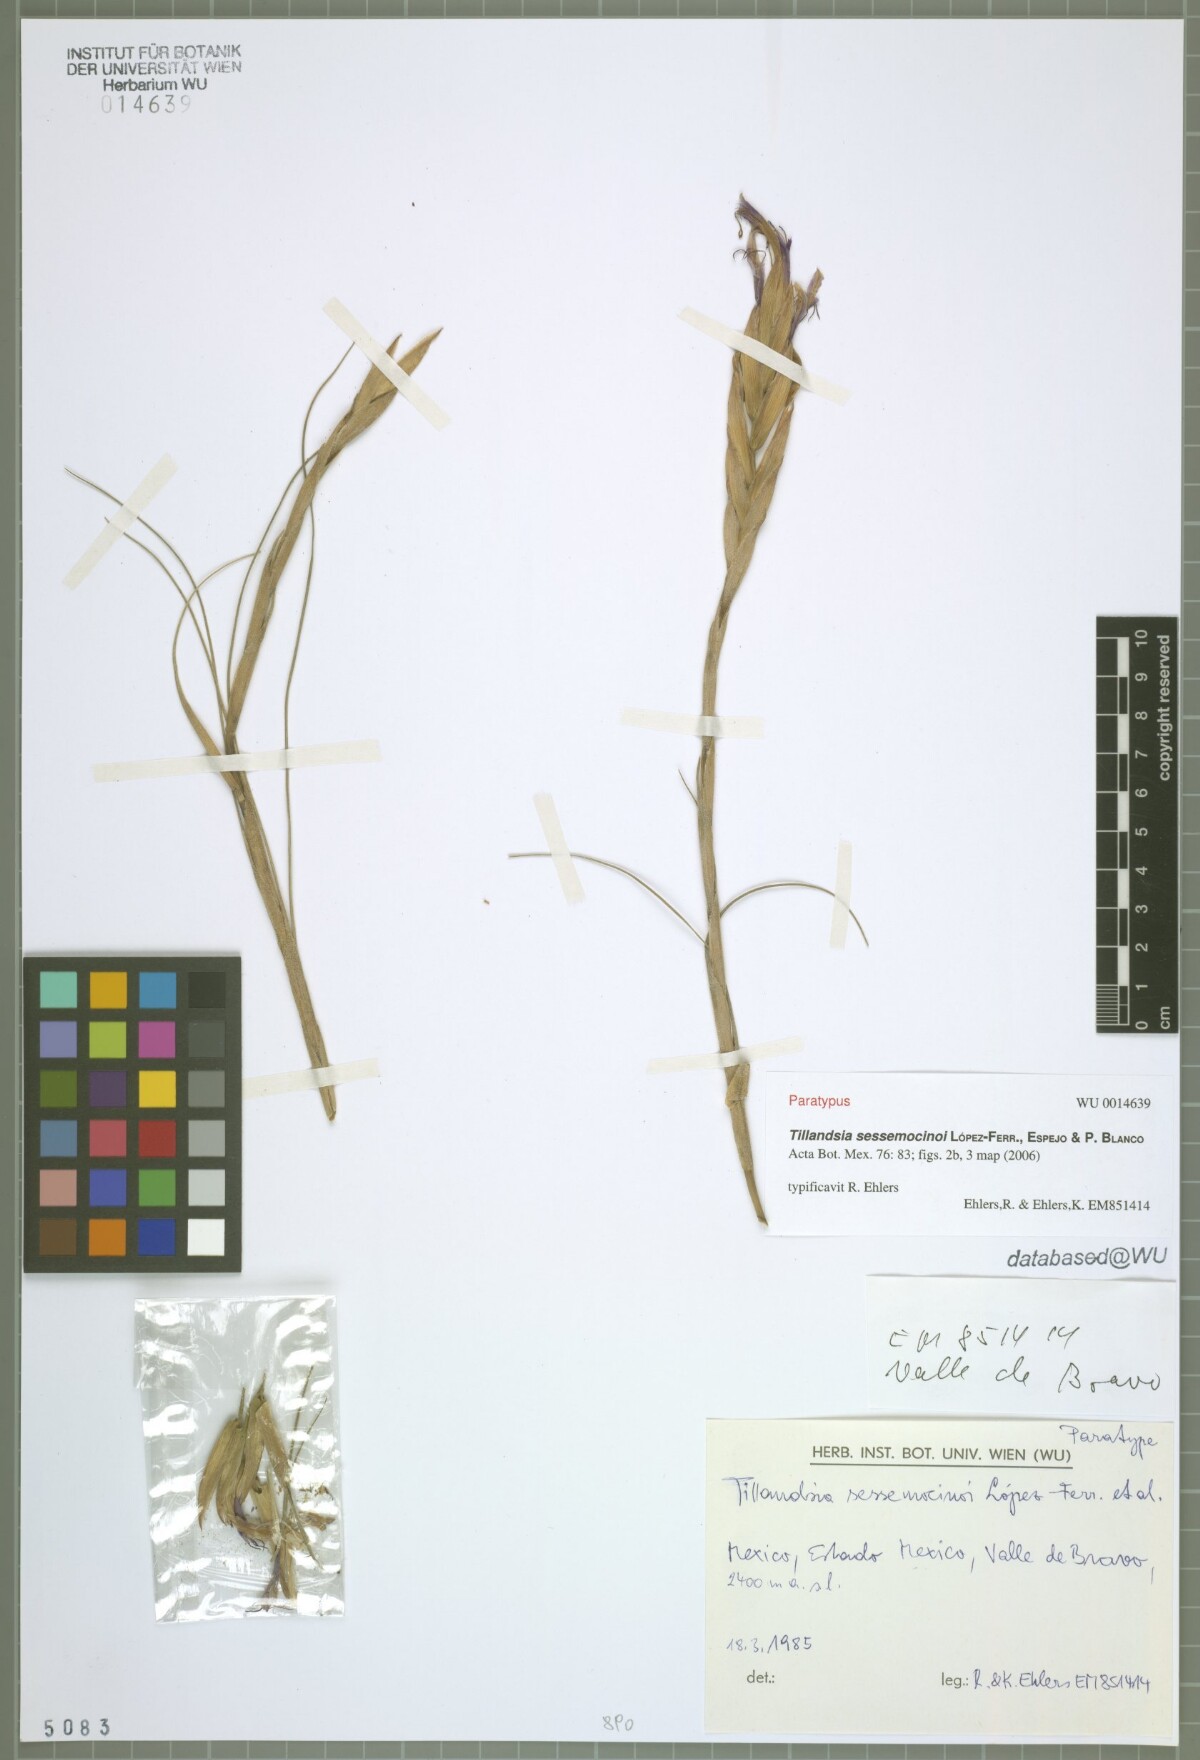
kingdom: Plantae
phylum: Tracheophyta
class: Liliopsida
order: Poales
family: Bromeliaceae
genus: Tillandsia
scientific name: Tillandsia sessemocinoi
